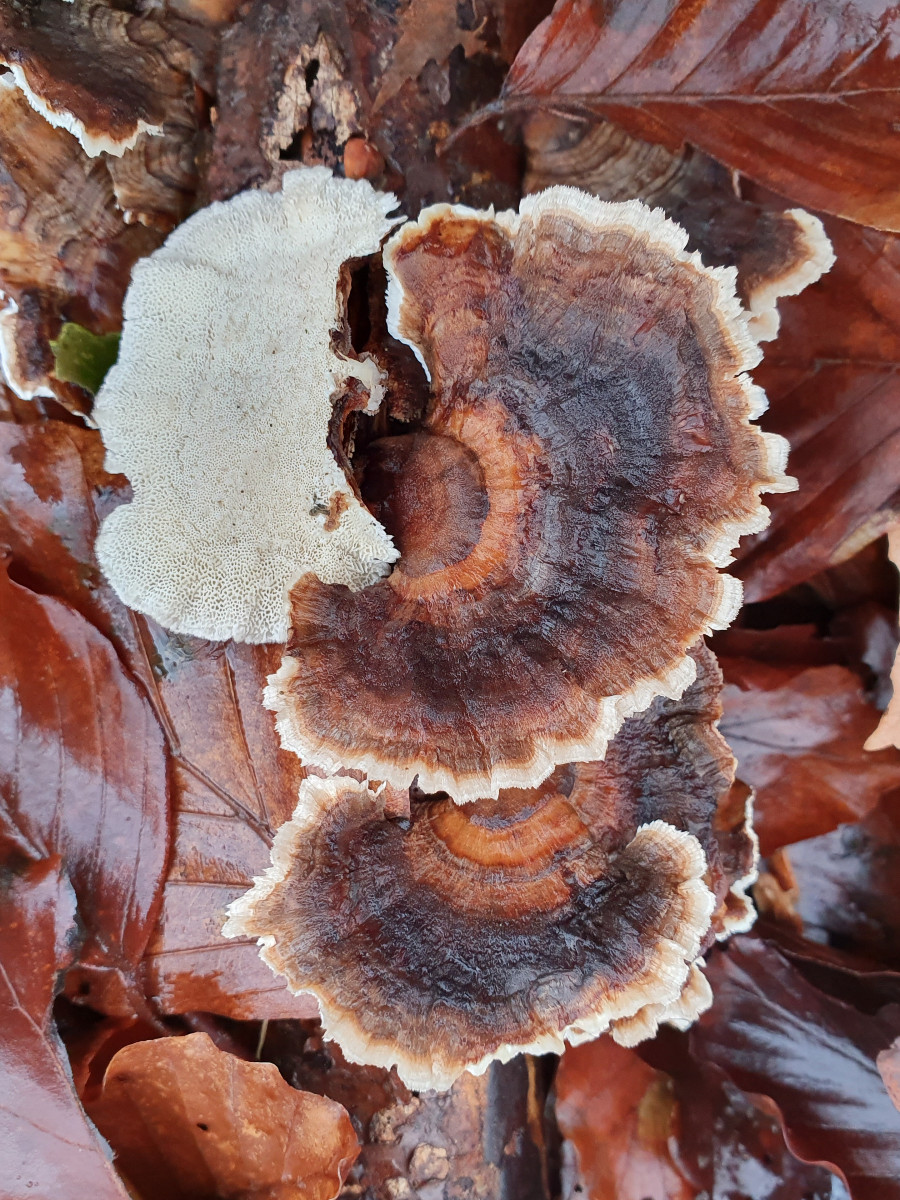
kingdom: Fungi
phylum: Basidiomycota
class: Agaricomycetes
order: Polyporales
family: Polyporaceae
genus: Trametes
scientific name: Trametes versicolor
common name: broget læderporesvamp
